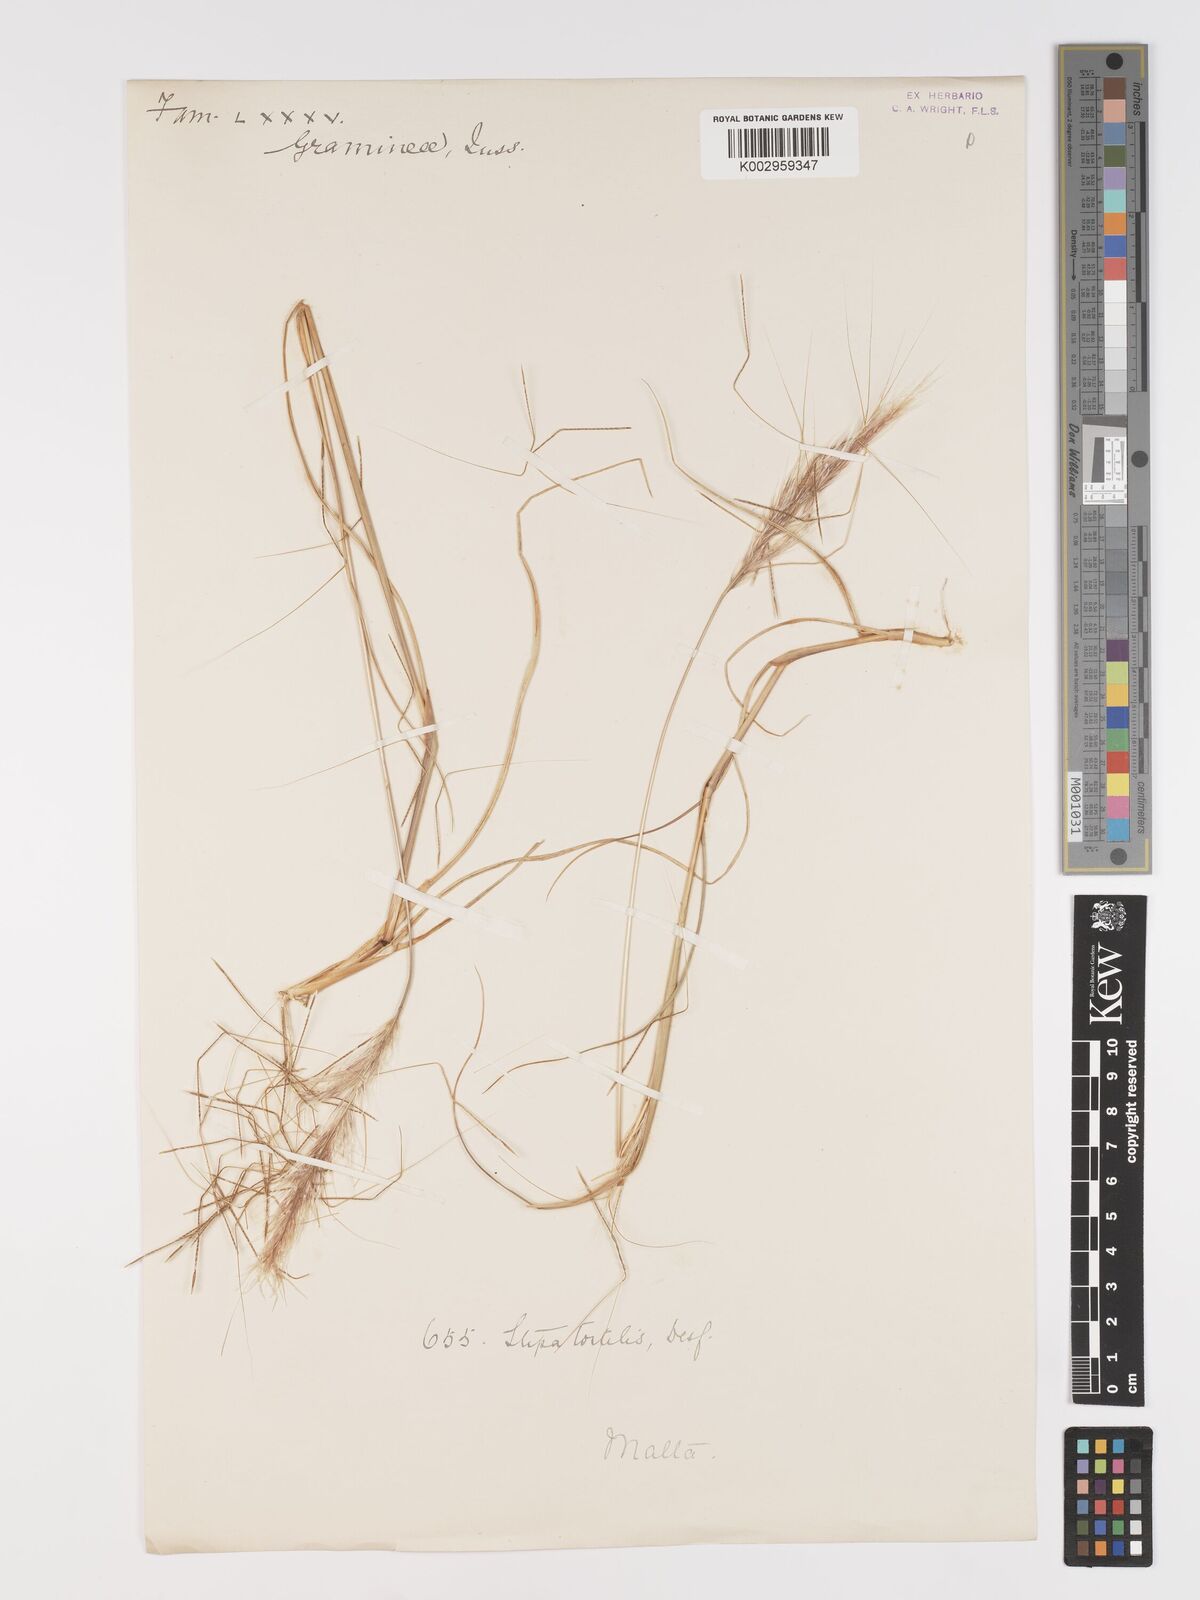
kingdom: Plantae
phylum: Tracheophyta
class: Liliopsida
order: Poales
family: Poaceae
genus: Stipellula
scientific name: Stipellula capensis
